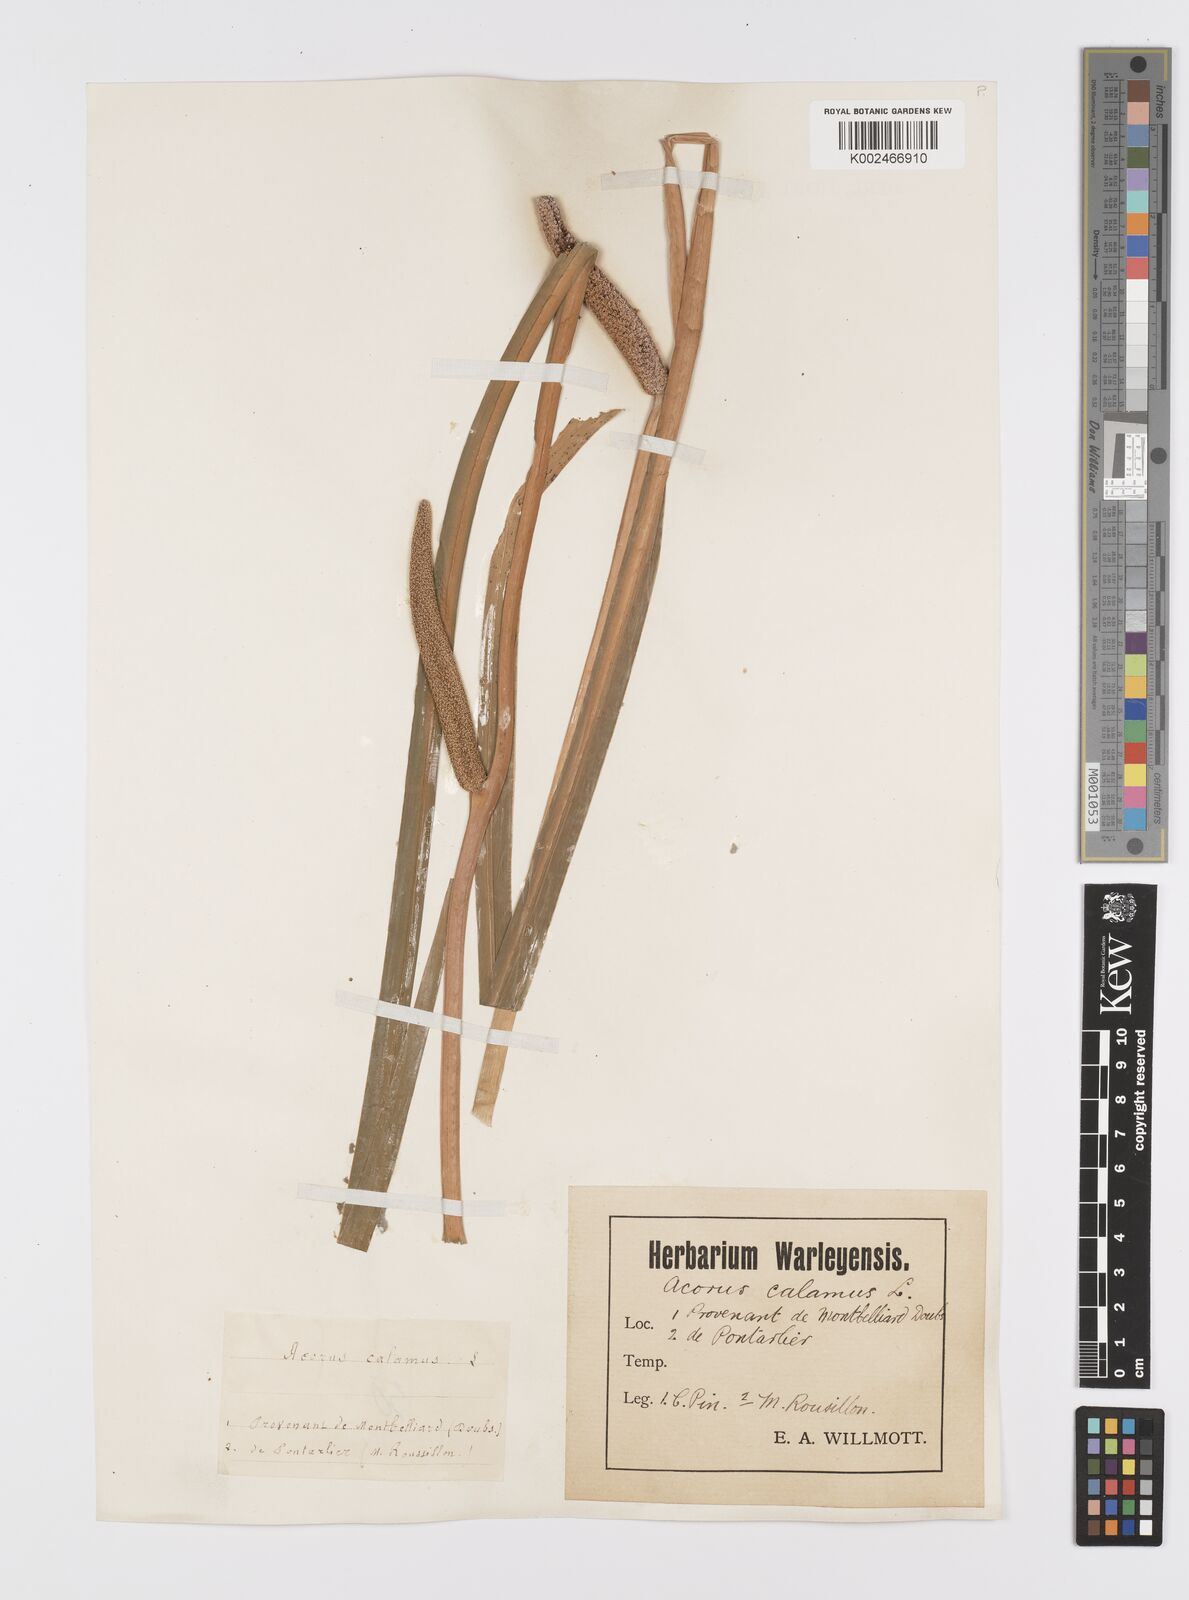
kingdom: Plantae
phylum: Tracheophyta
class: Liliopsida
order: Acorales
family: Acoraceae
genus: Acorus
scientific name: Acorus calamus
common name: Sweet-flag
